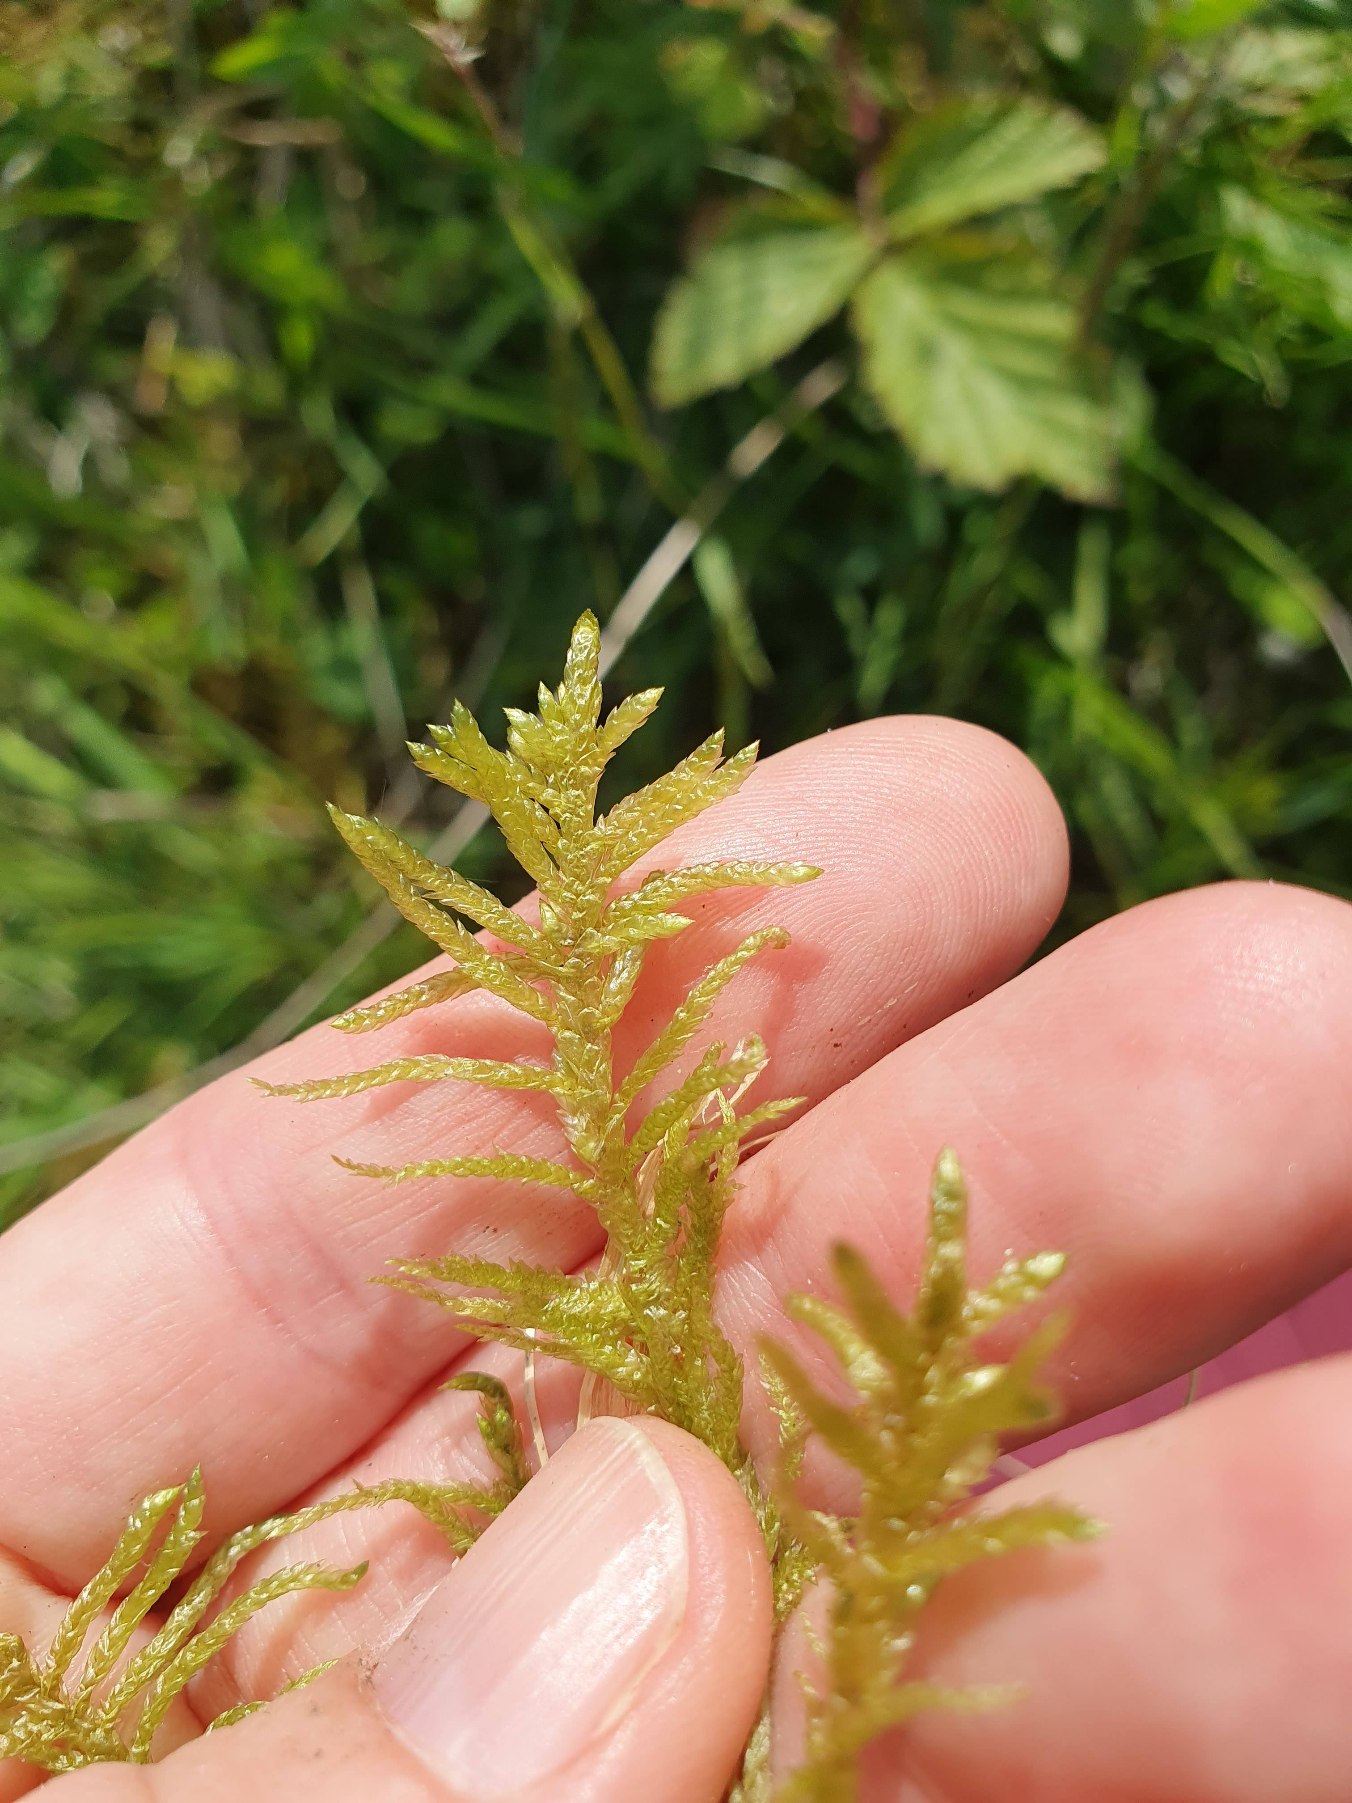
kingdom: Plantae
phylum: Bryophyta
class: Bryopsida
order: Hypnales
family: Brachytheciaceae
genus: Pseudoscleropodium
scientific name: Pseudoscleropodium purum
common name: Hulbladet fedtmos
